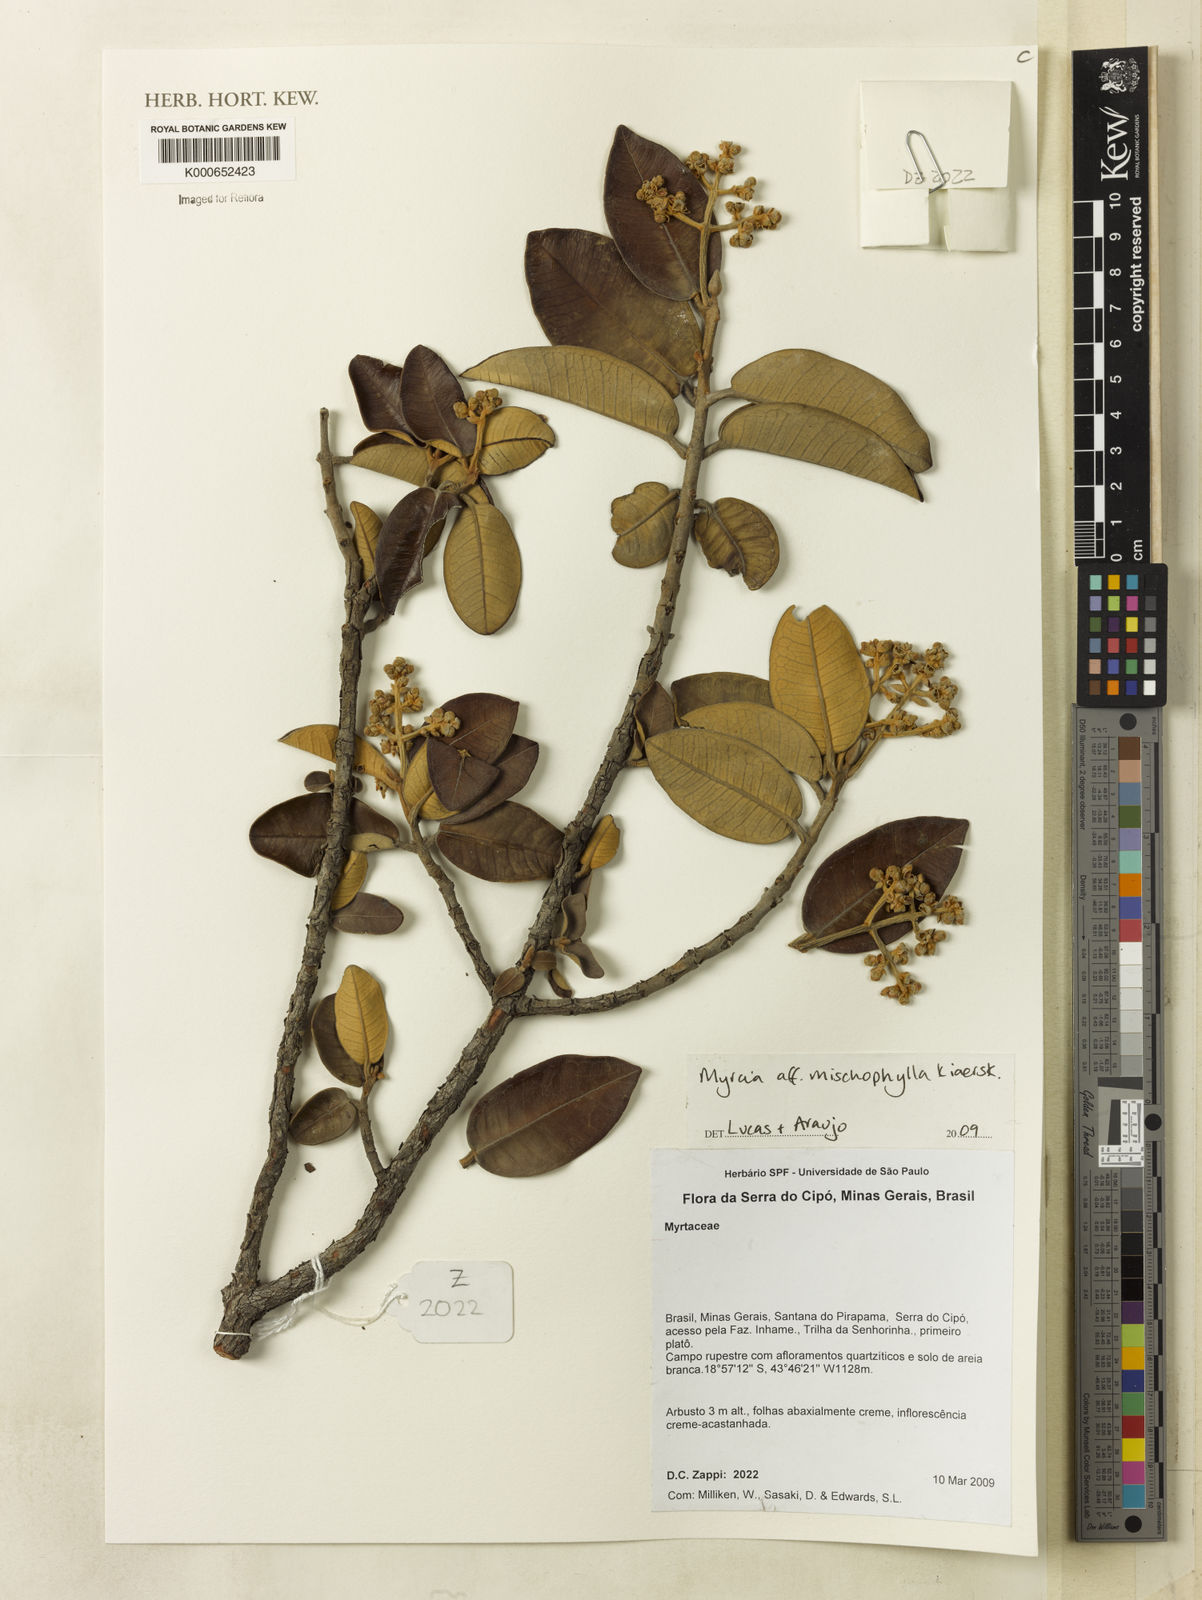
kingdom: Plantae
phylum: Tracheophyta
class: Magnoliopsida
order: Myrtales
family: Myrtaceae
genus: Myrcia
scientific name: Myrcia mischophylla
